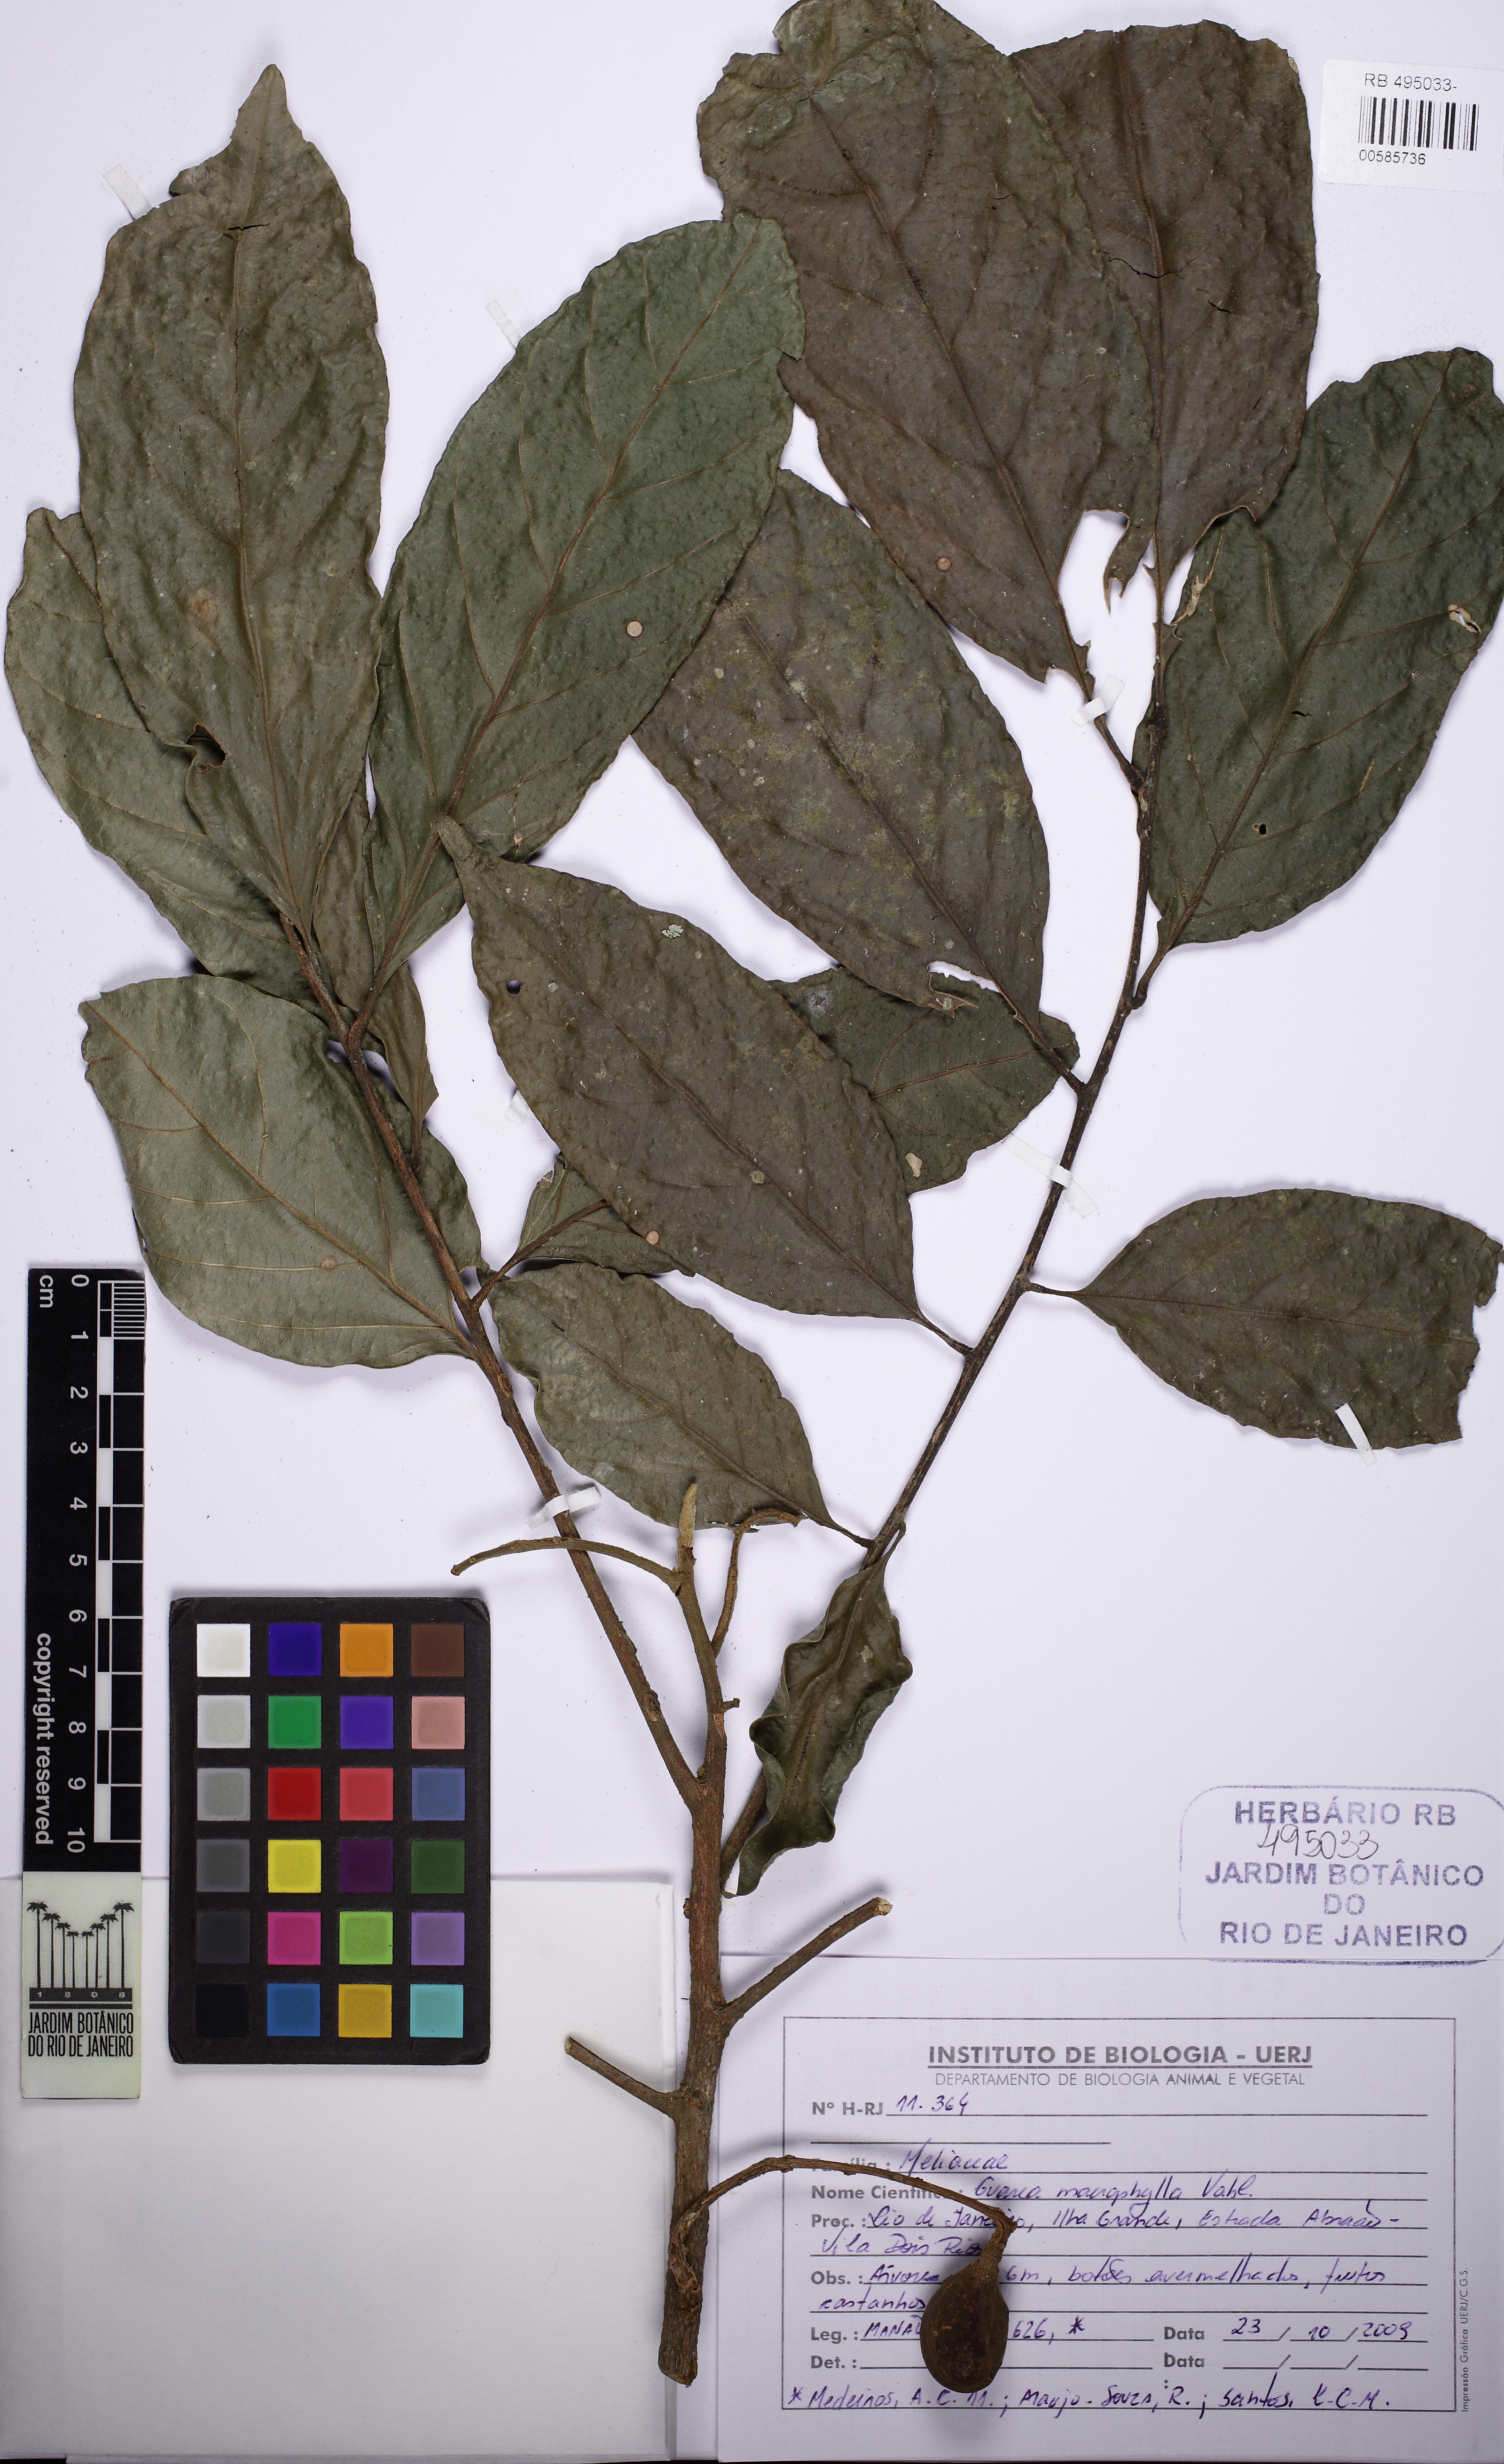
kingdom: Plantae
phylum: Tracheophyta
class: Magnoliopsida
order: Sapindales
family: Meliaceae
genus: Guarea
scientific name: Guarea macrophylla
